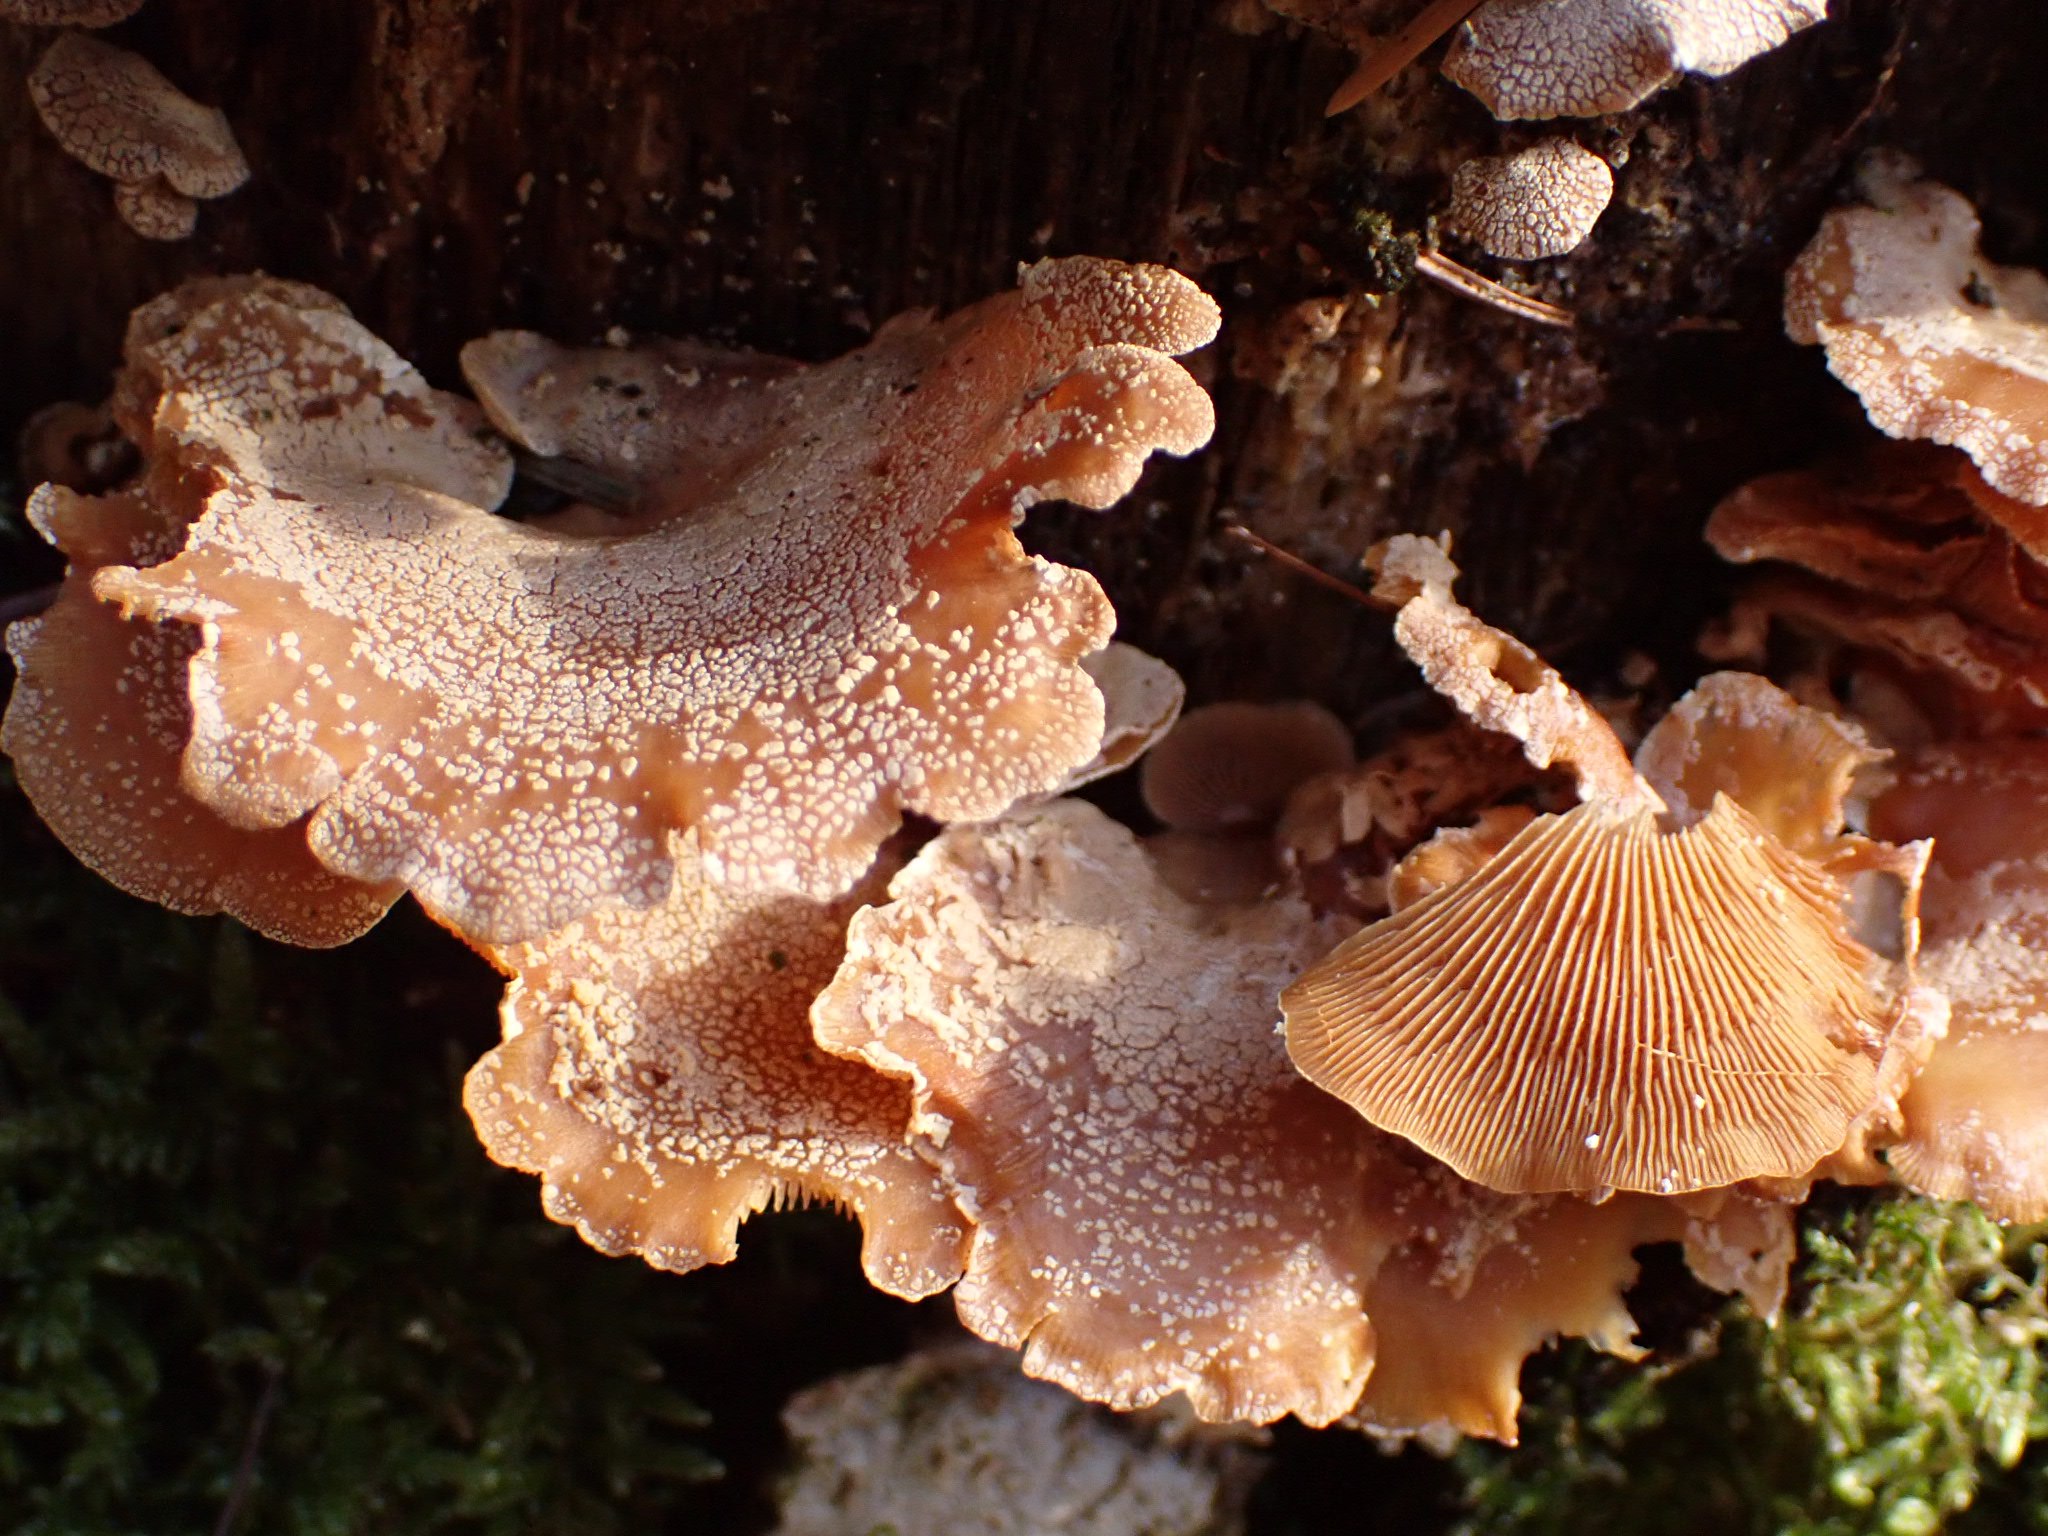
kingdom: Fungi
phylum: Basidiomycota
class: Agaricomycetes
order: Agaricales
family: Mycenaceae
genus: Panellus
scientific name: Panellus stipticus
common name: kliddet epaulethat
